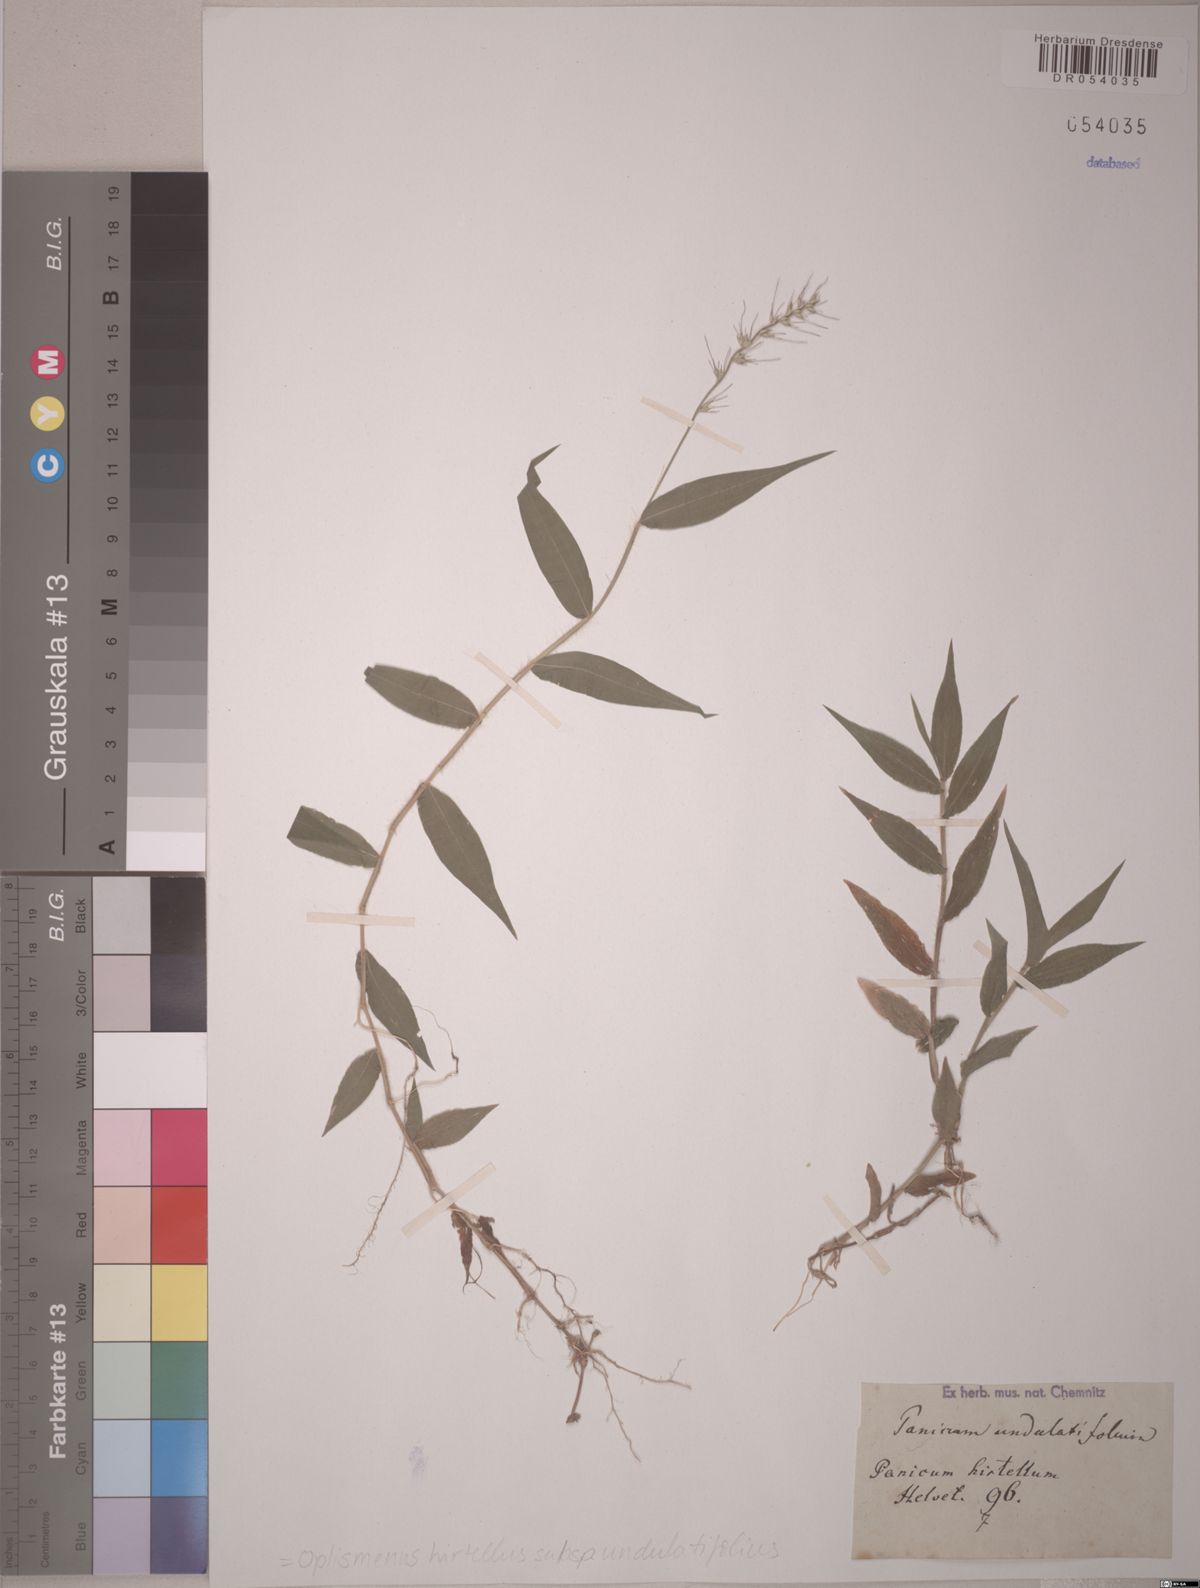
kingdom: Plantae
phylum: Tracheophyta
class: Liliopsida
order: Poales
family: Poaceae
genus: Oplismenus
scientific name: Oplismenus undulatifolius
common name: Wavyleaf basketgrass
